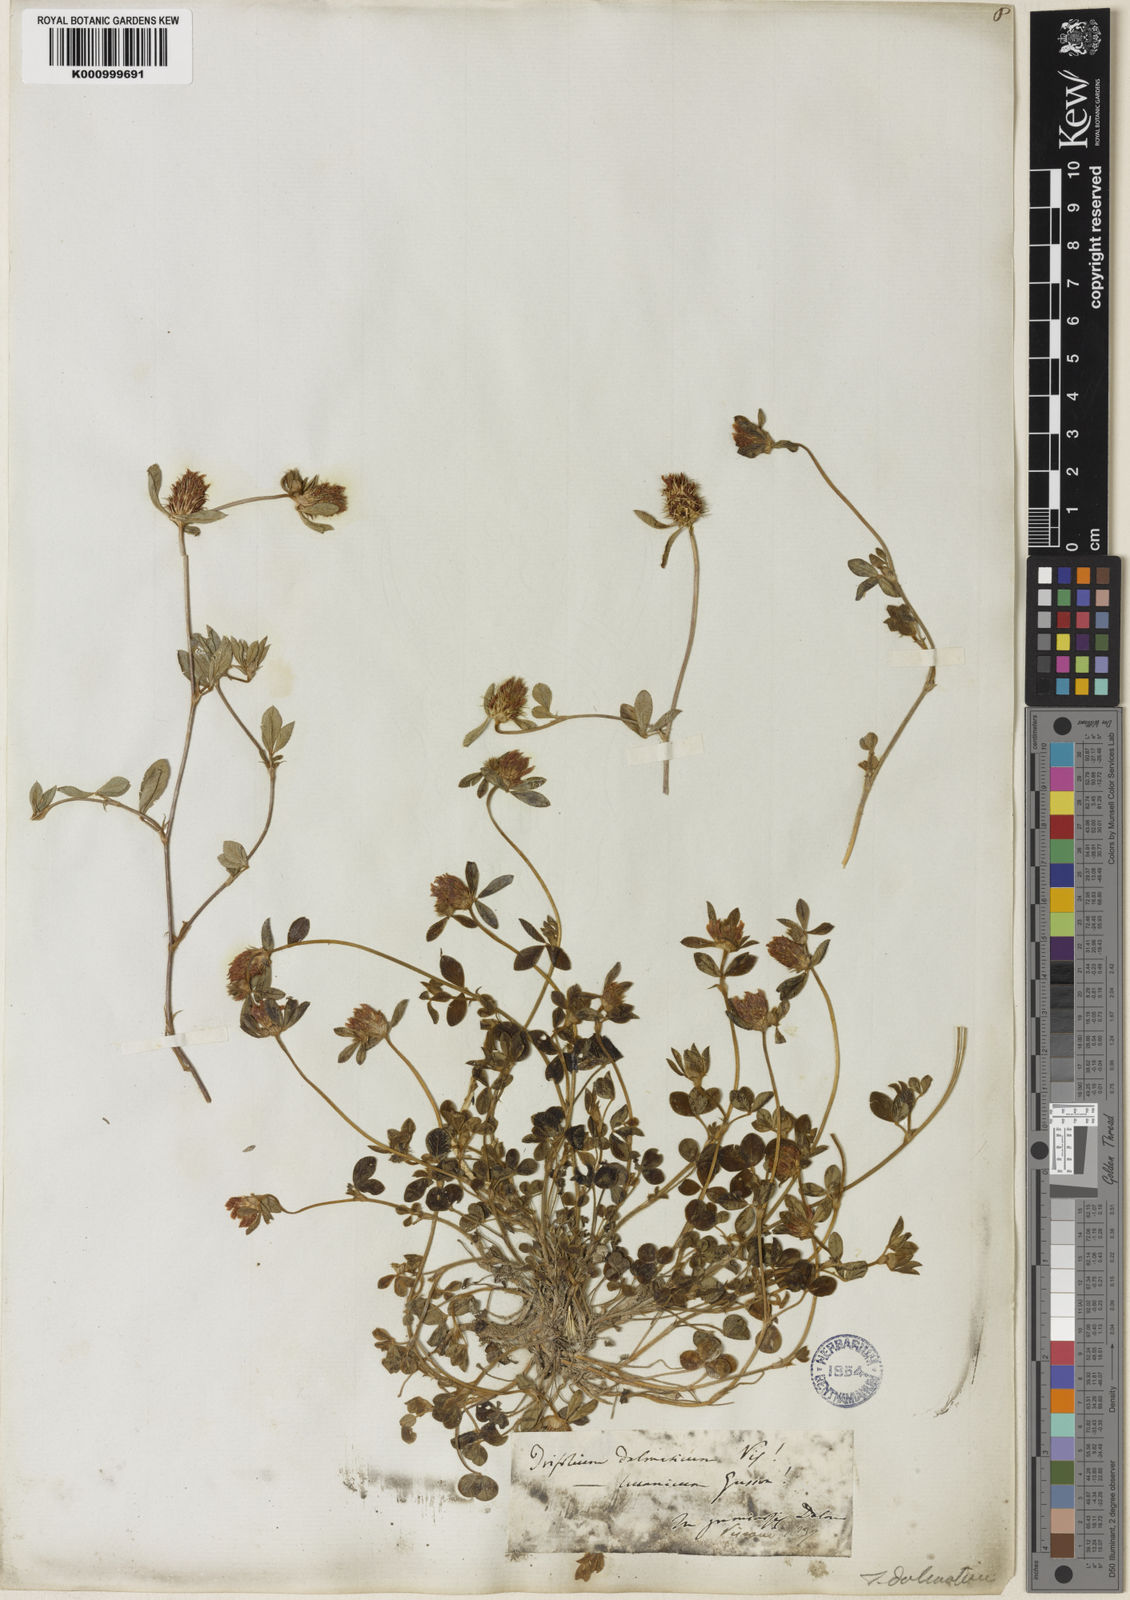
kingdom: Plantae
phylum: Tracheophyta
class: Magnoliopsida
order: Fabales
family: Fabaceae
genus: Trifolium
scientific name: Trifolium dalmaticum
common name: Dalmatian clover
